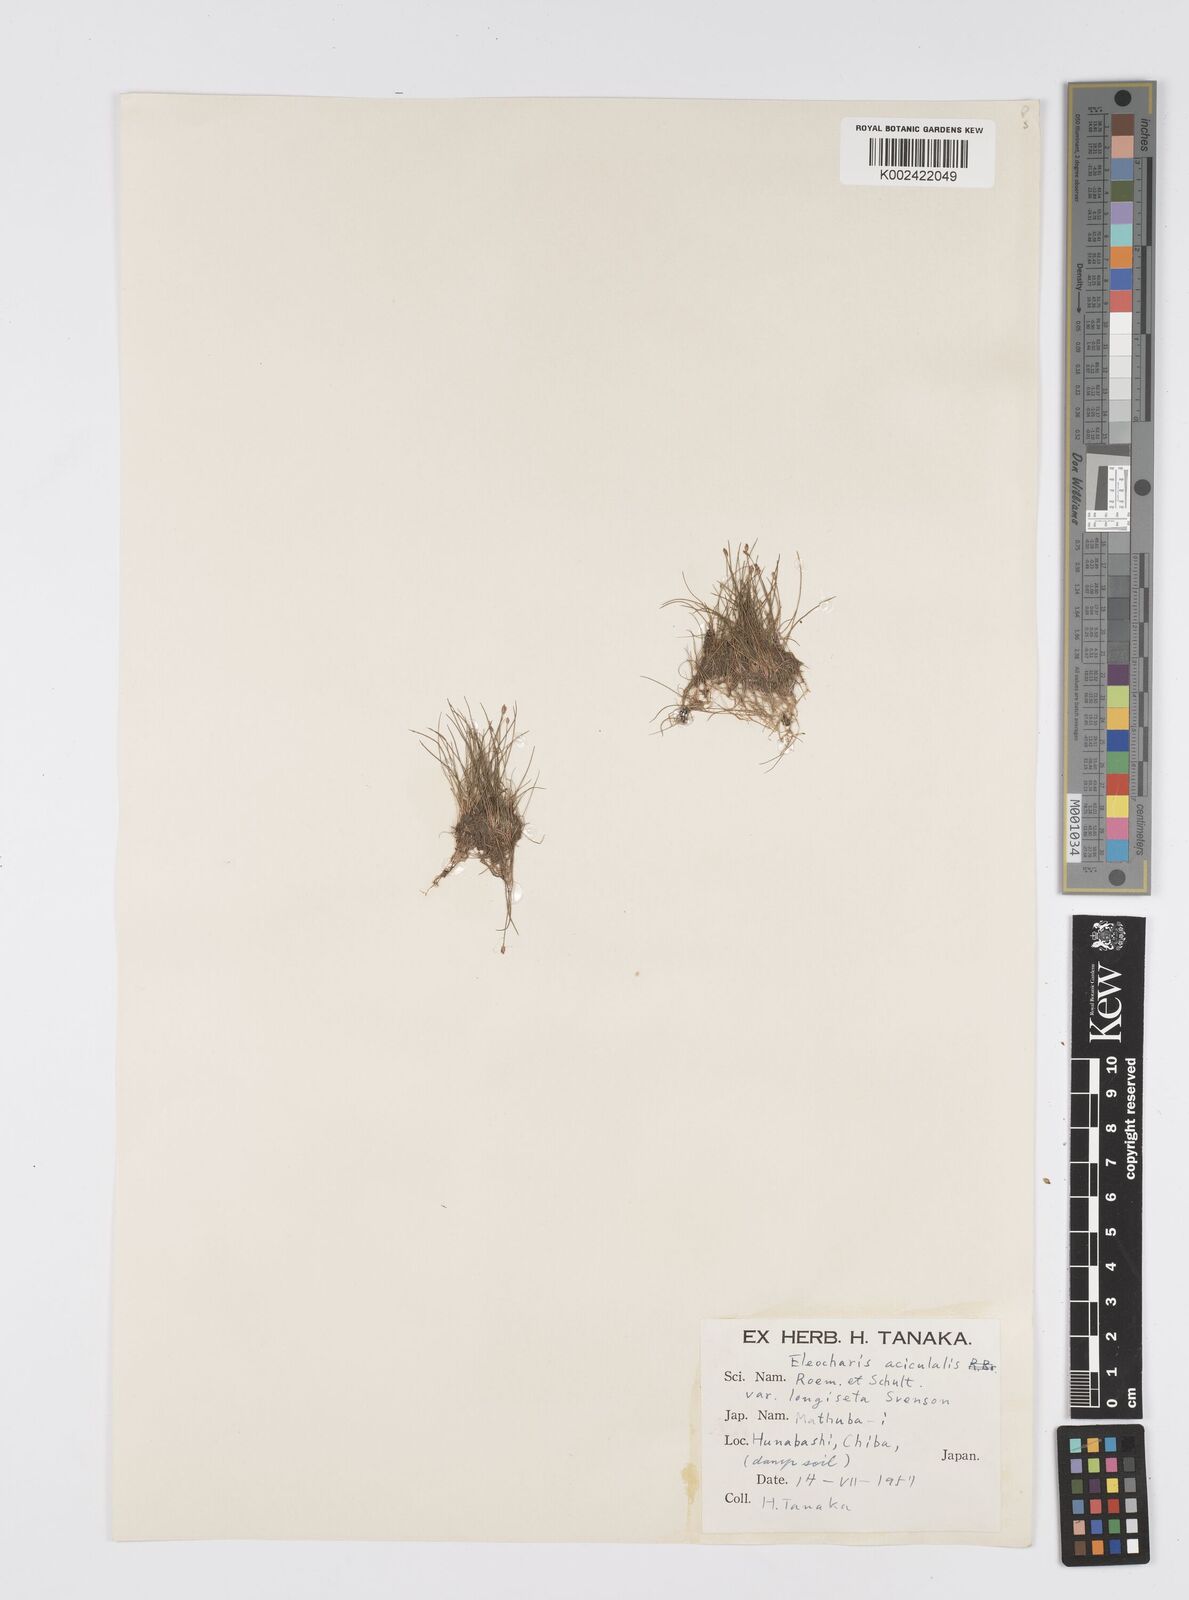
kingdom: Plantae
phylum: Tracheophyta
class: Liliopsida
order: Poales
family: Cyperaceae
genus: Eleocharis
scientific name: Eleocharis acicularis
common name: Needle spike-rush
